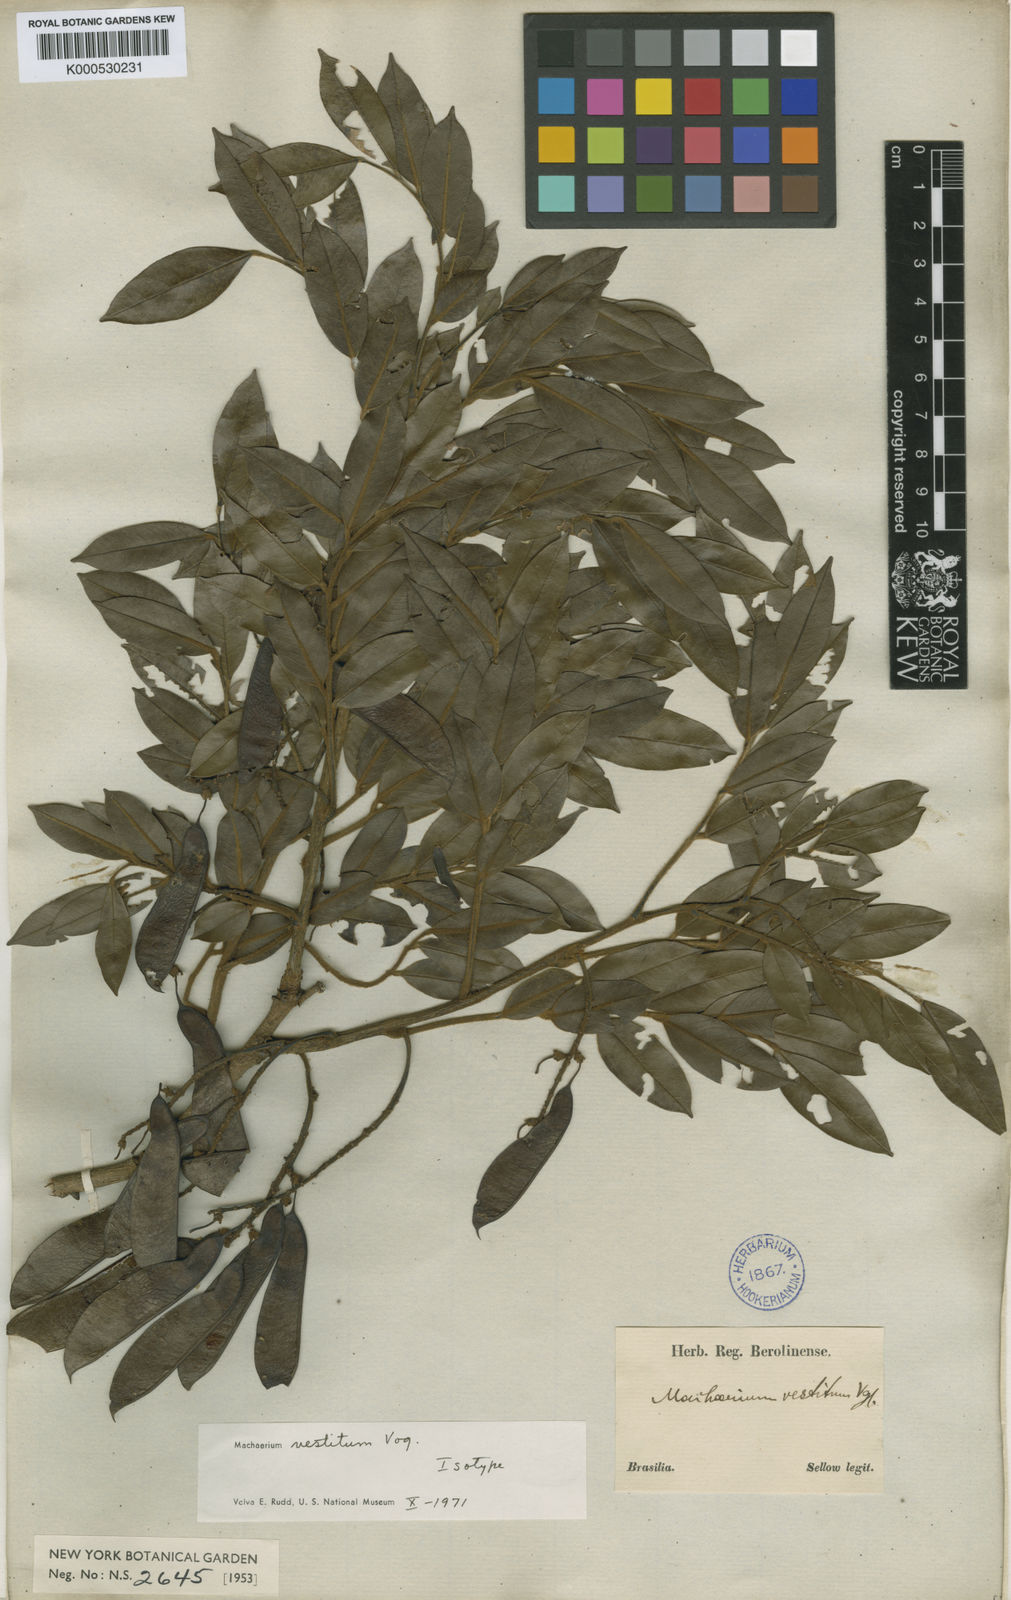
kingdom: Plantae
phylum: Tracheophyta
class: Magnoliopsida
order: Fabales
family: Fabaceae
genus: Machaerium
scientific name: Machaerium brasiliense
